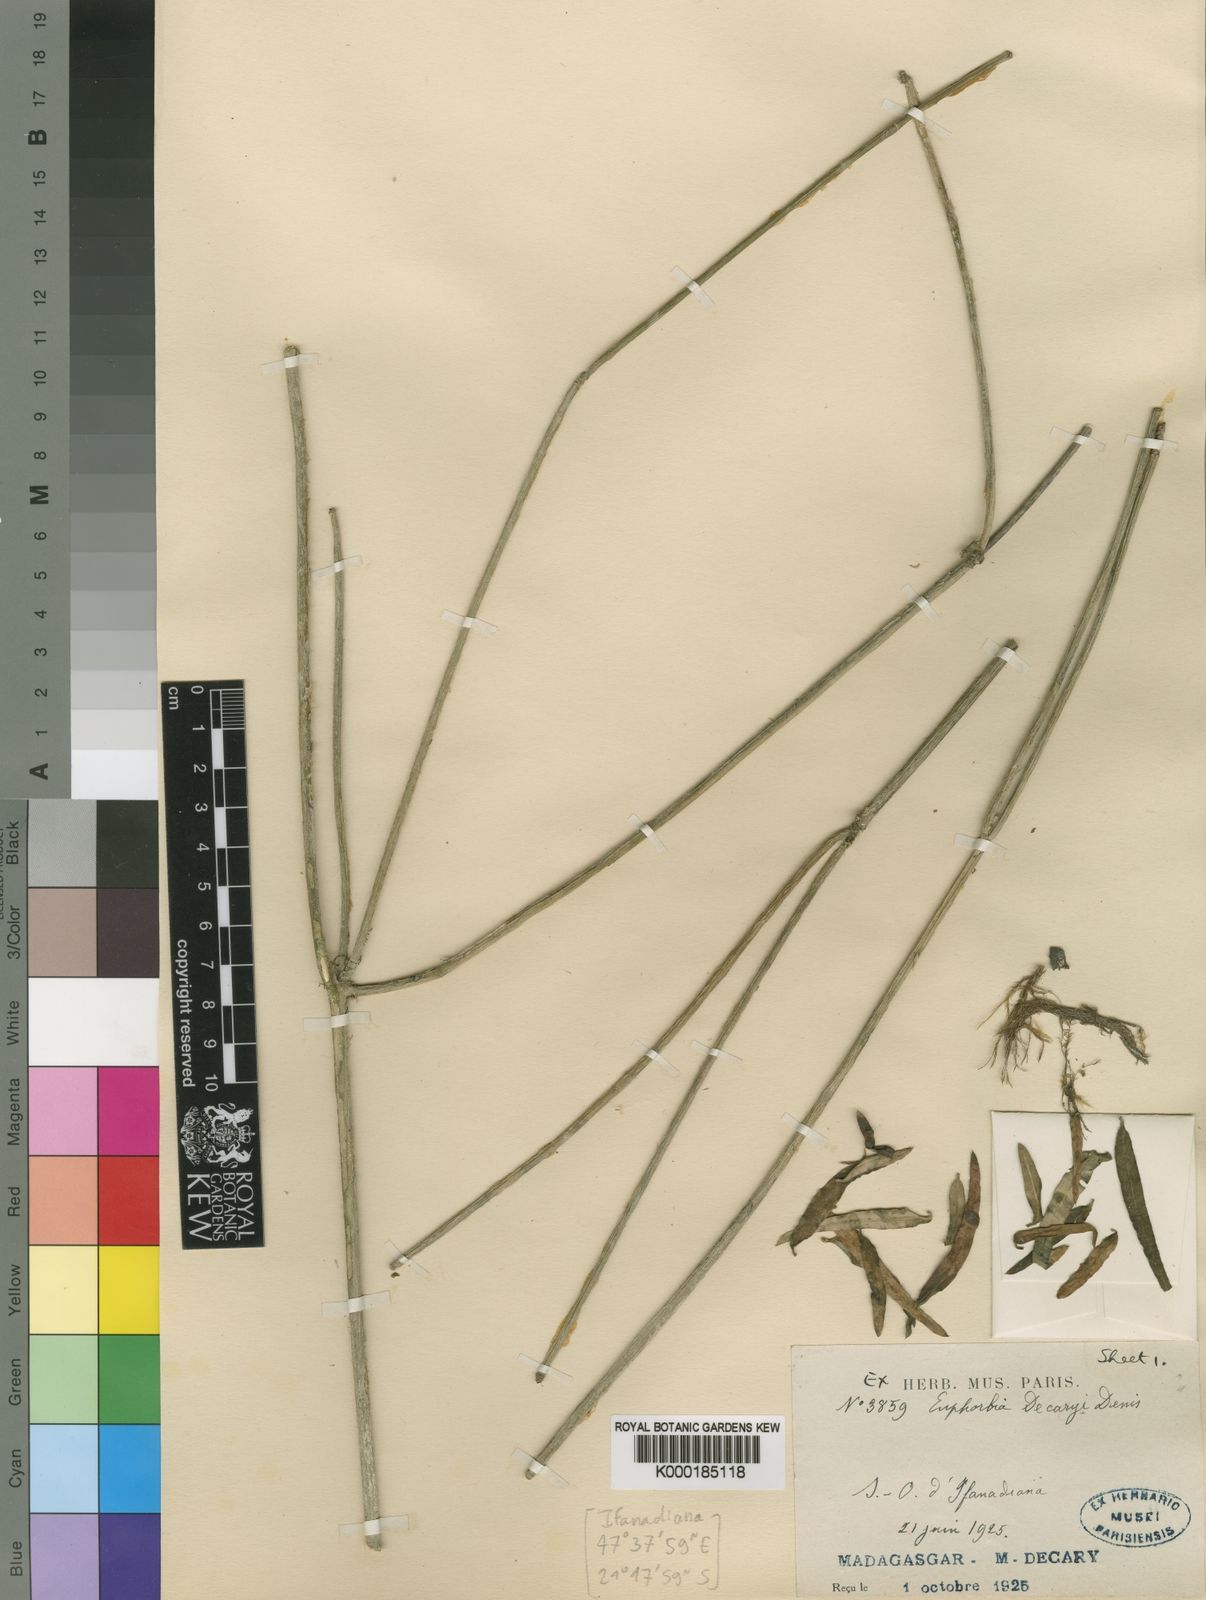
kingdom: Plantae
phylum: Tracheophyta
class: Magnoliopsida
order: Malpighiales
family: Euphorbiaceae
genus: Euphorbia
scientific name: Euphorbia rangovalensis
